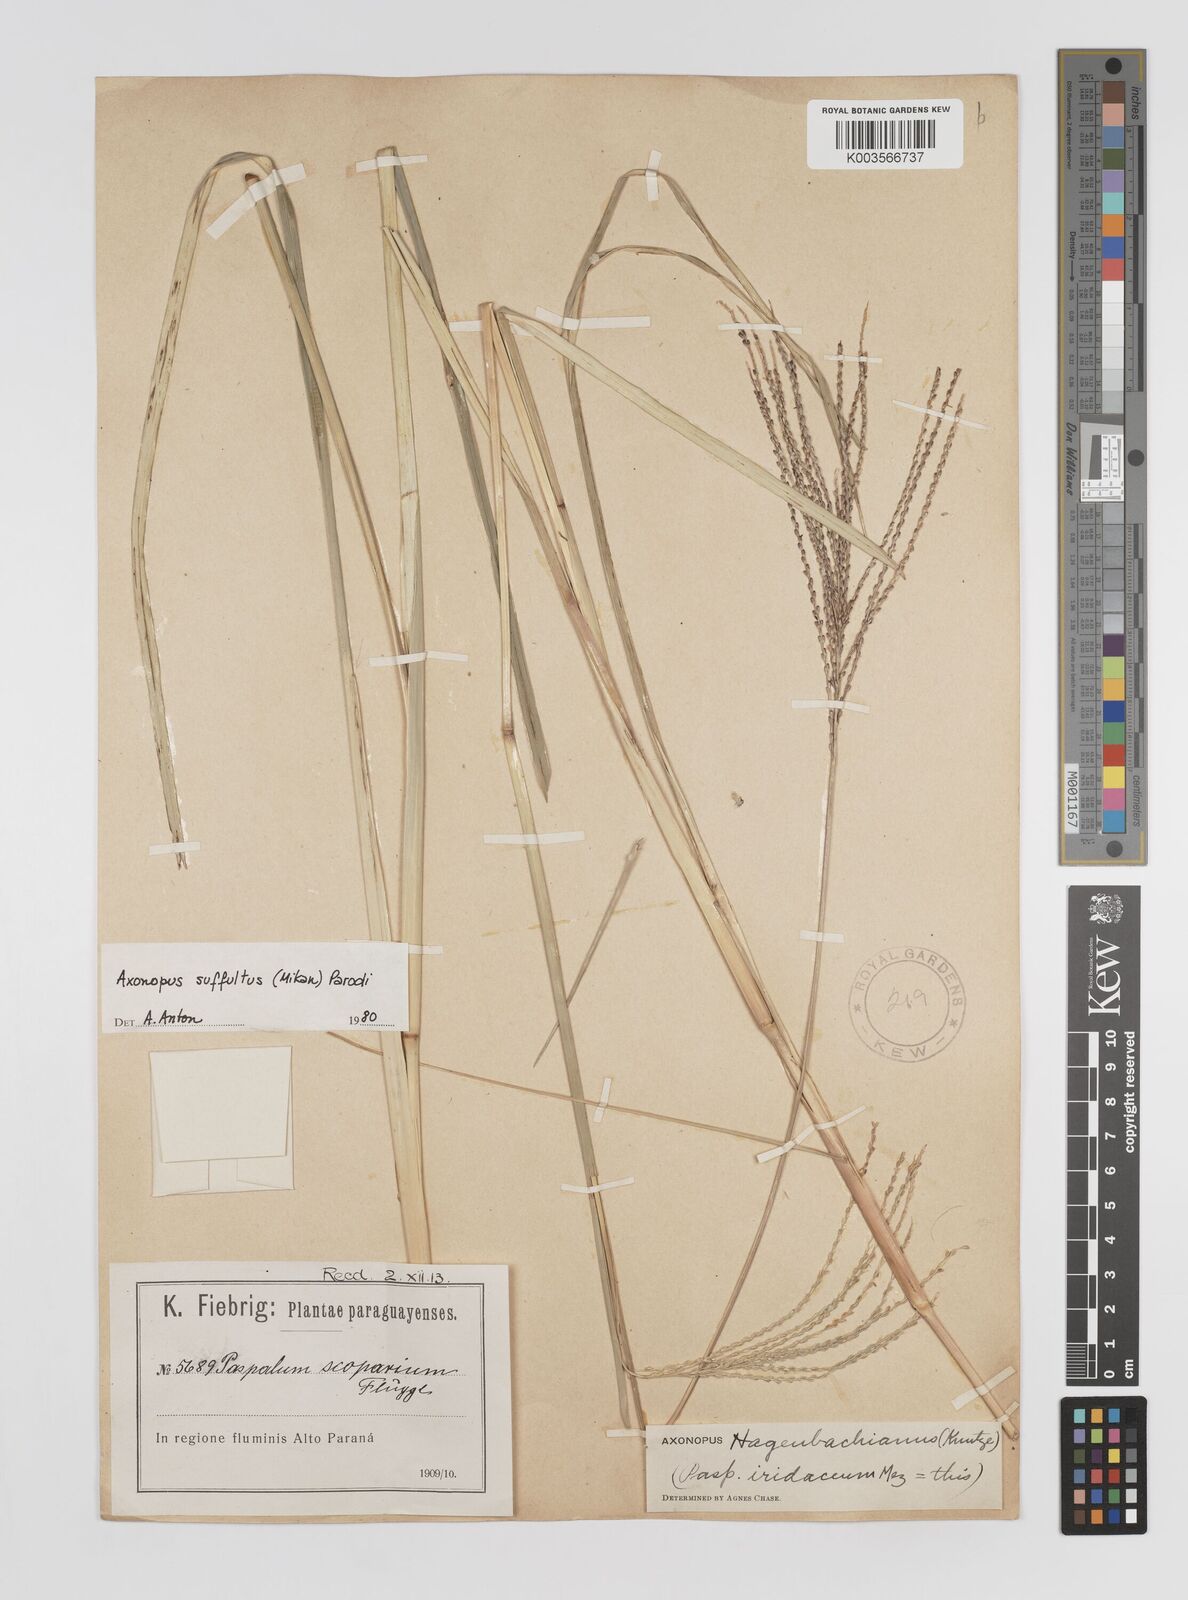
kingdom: Plantae
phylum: Tracheophyta
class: Liliopsida
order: Poales
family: Poaceae
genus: Axonopus
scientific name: Axonopus suffultus
